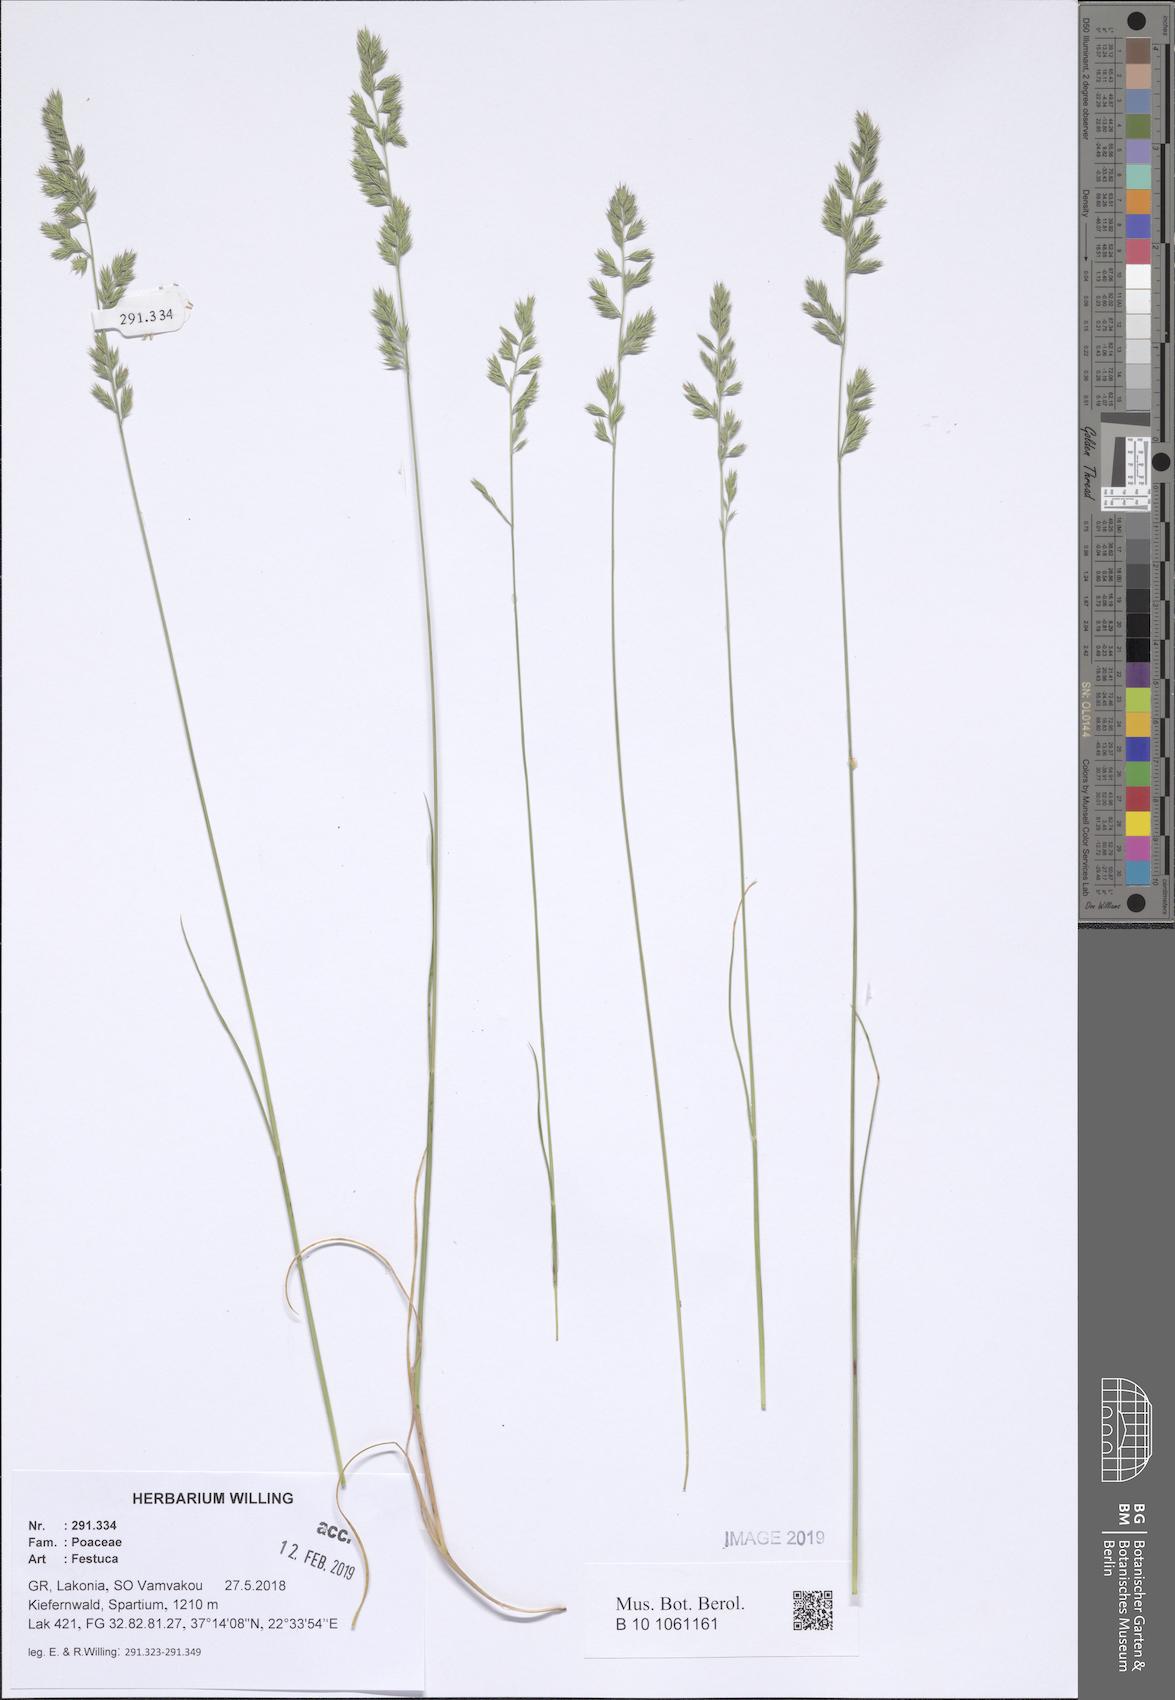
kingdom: Plantae
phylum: Tracheophyta
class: Liliopsida
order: Poales
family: Poaceae
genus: Festuca
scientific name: Festuca
